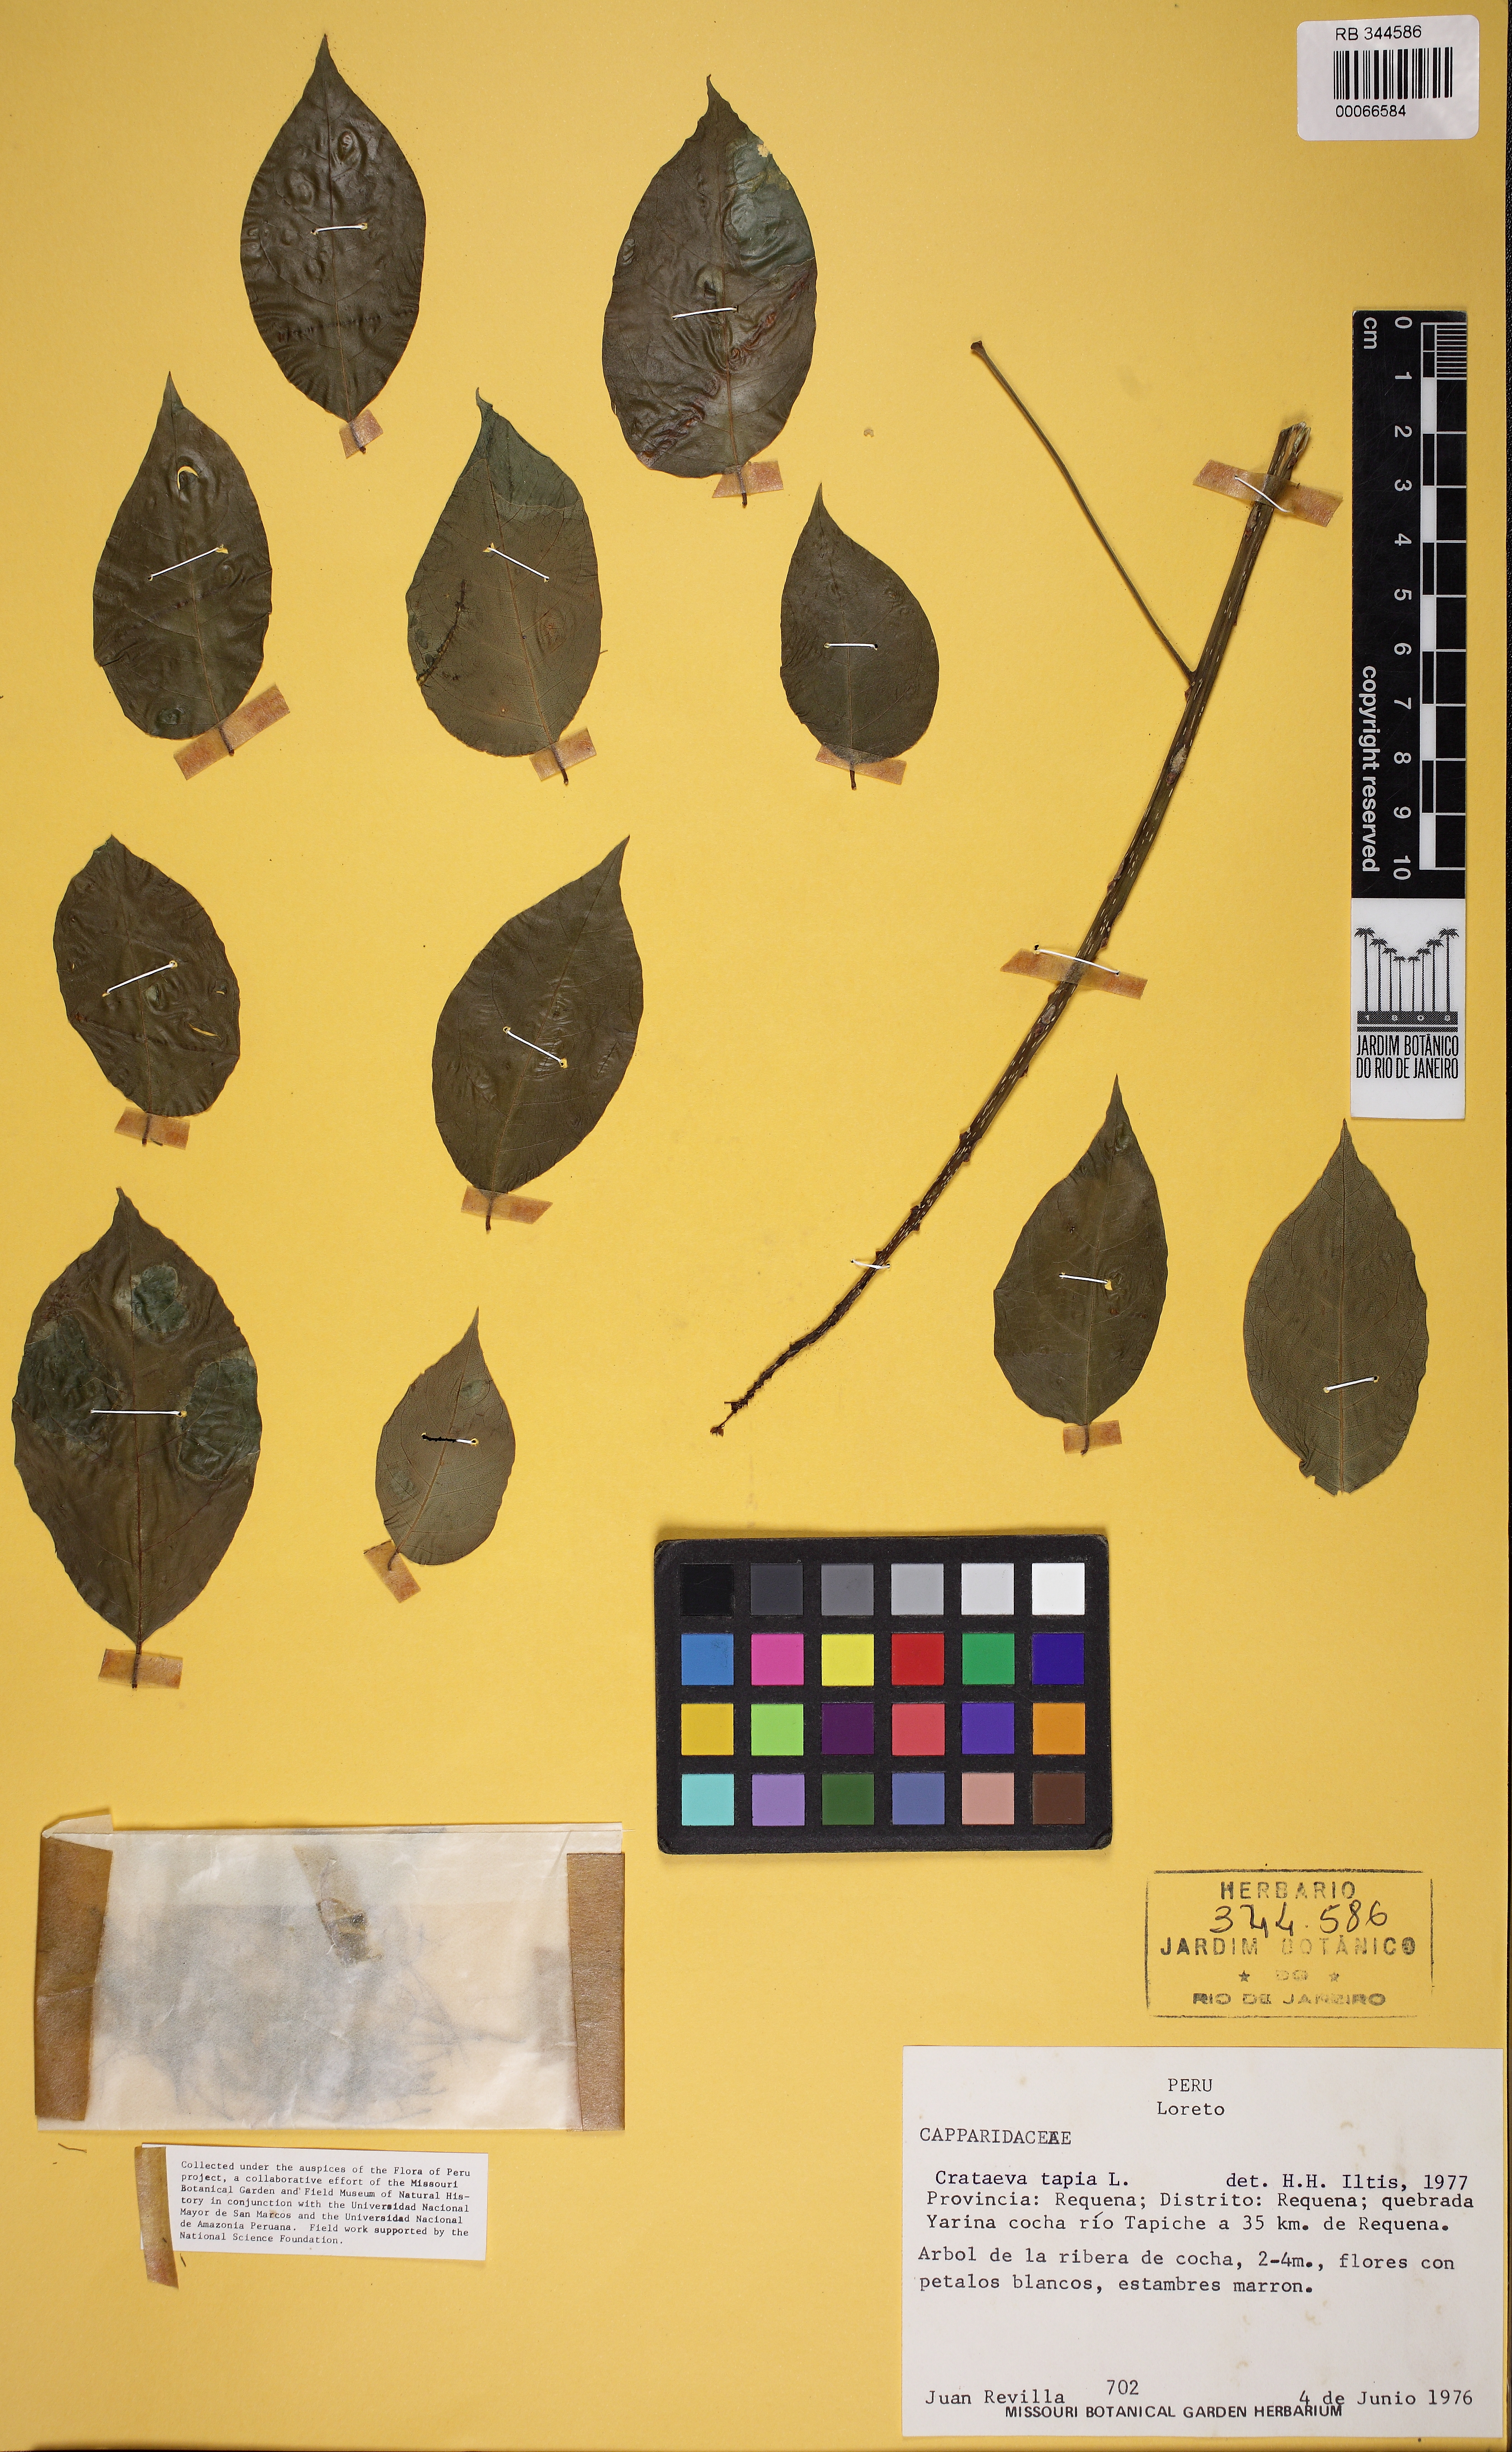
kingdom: Plantae
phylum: Tracheophyta
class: Magnoliopsida
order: Brassicales
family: Capparaceae
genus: Crateva
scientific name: Crateva tapia
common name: Garlic-pear
